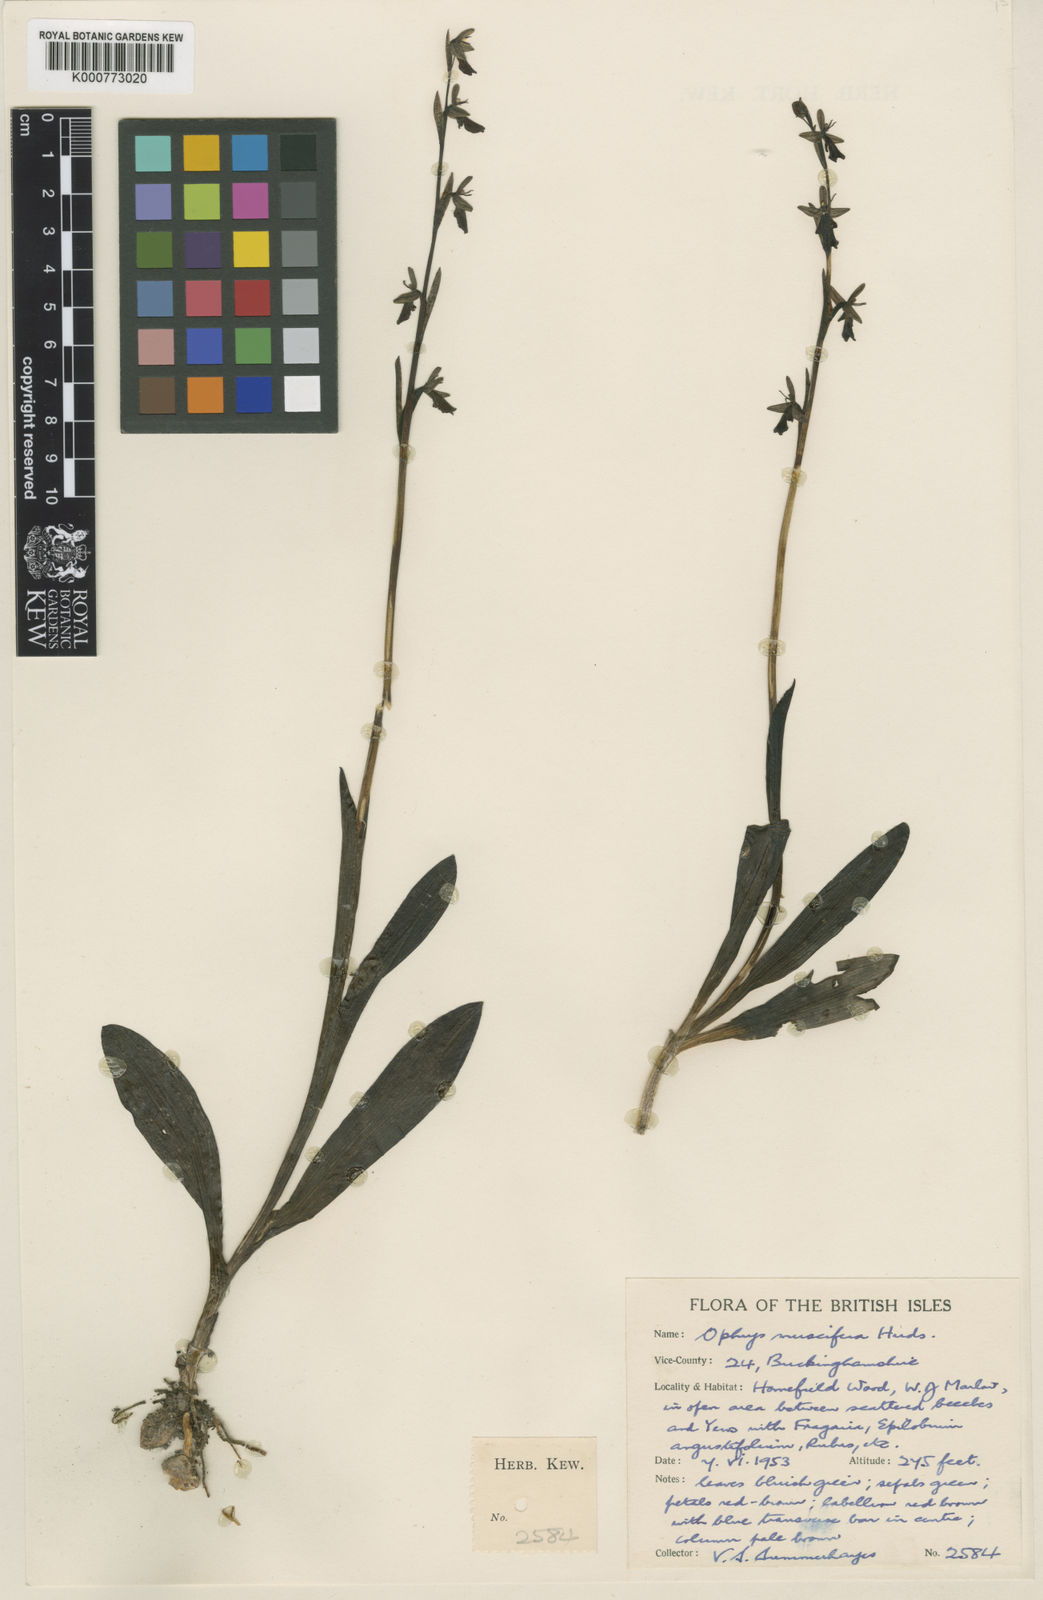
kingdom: Plantae
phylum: Tracheophyta
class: Liliopsida
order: Asparagales
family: Orchidaceae
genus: Ophrys
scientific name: Ophrys insectifera
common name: Fly orchid
